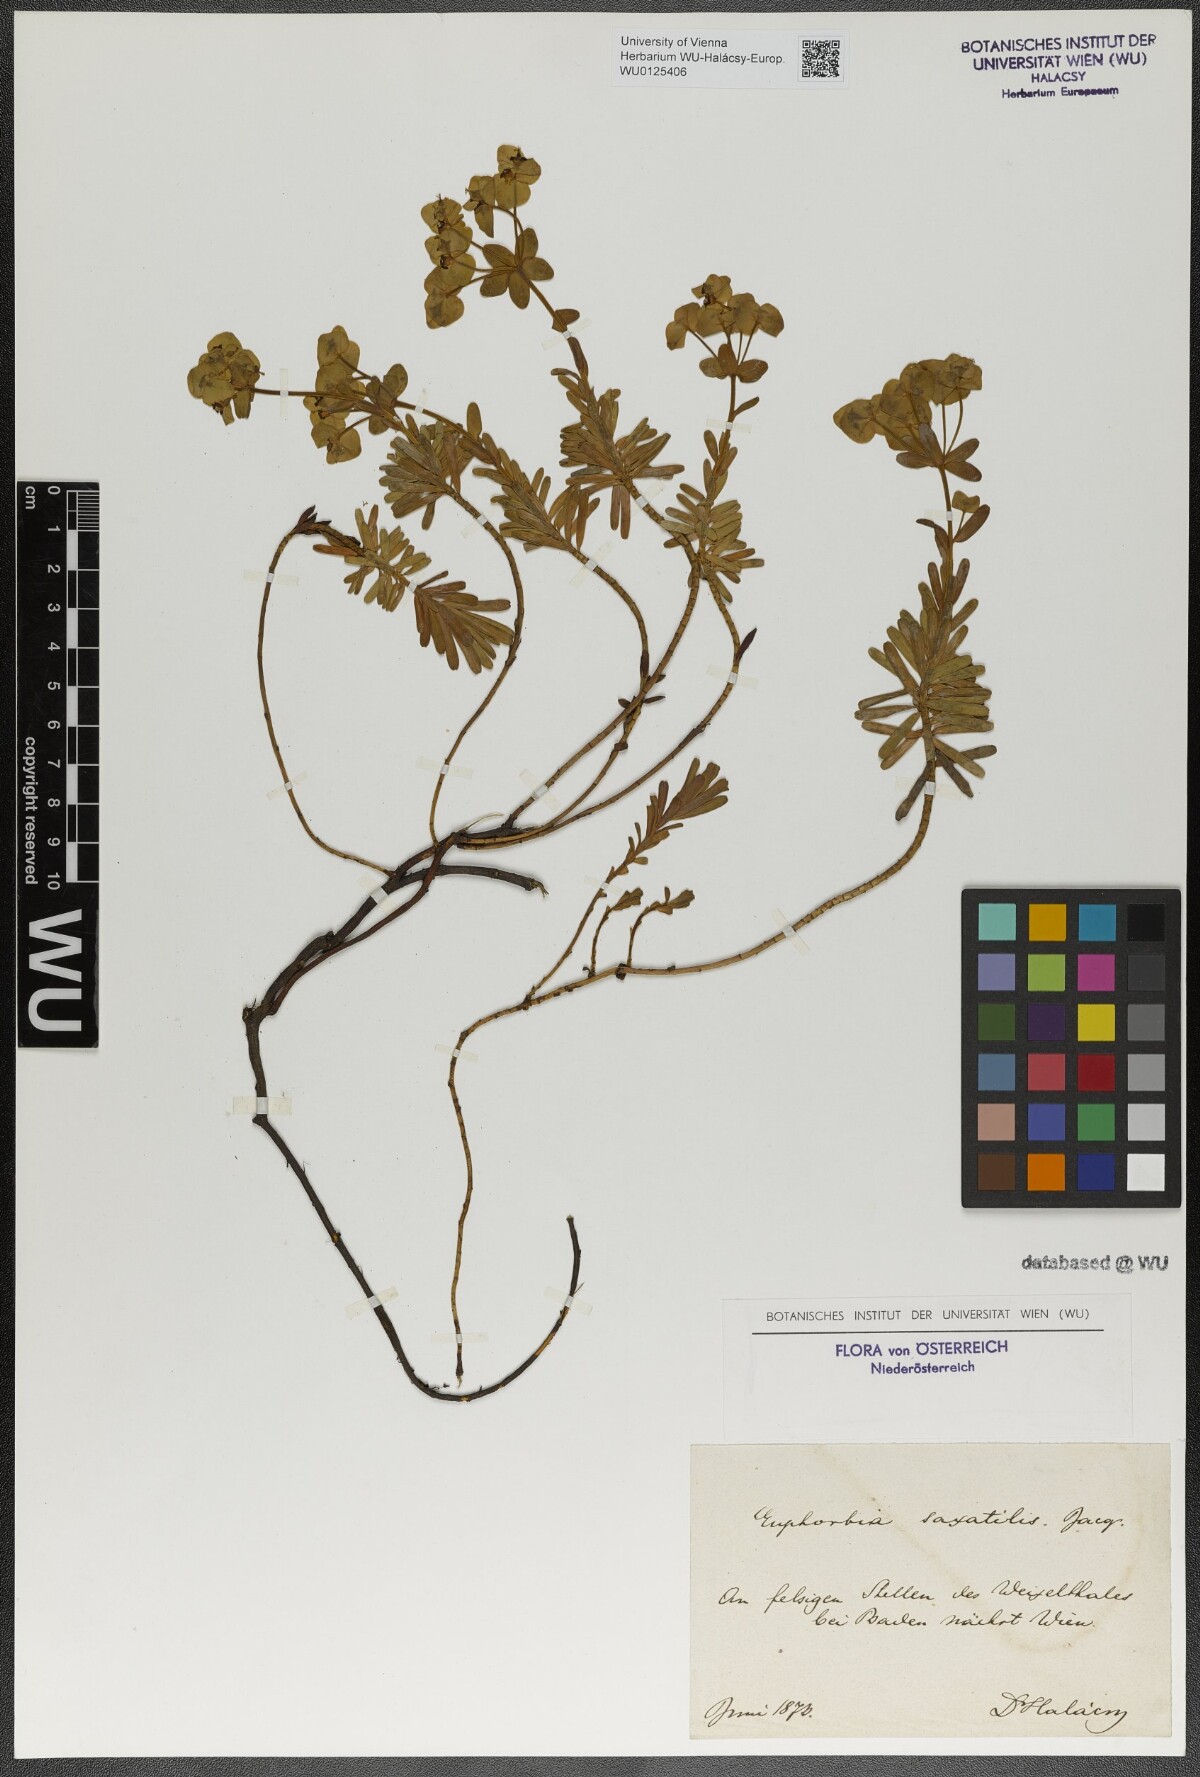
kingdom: Plantae
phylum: Tracheophyta
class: Magnoliopsida
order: Malpighiales
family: Euphorbiaceae
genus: Euphorbia
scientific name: Euphorbia saxatilis
